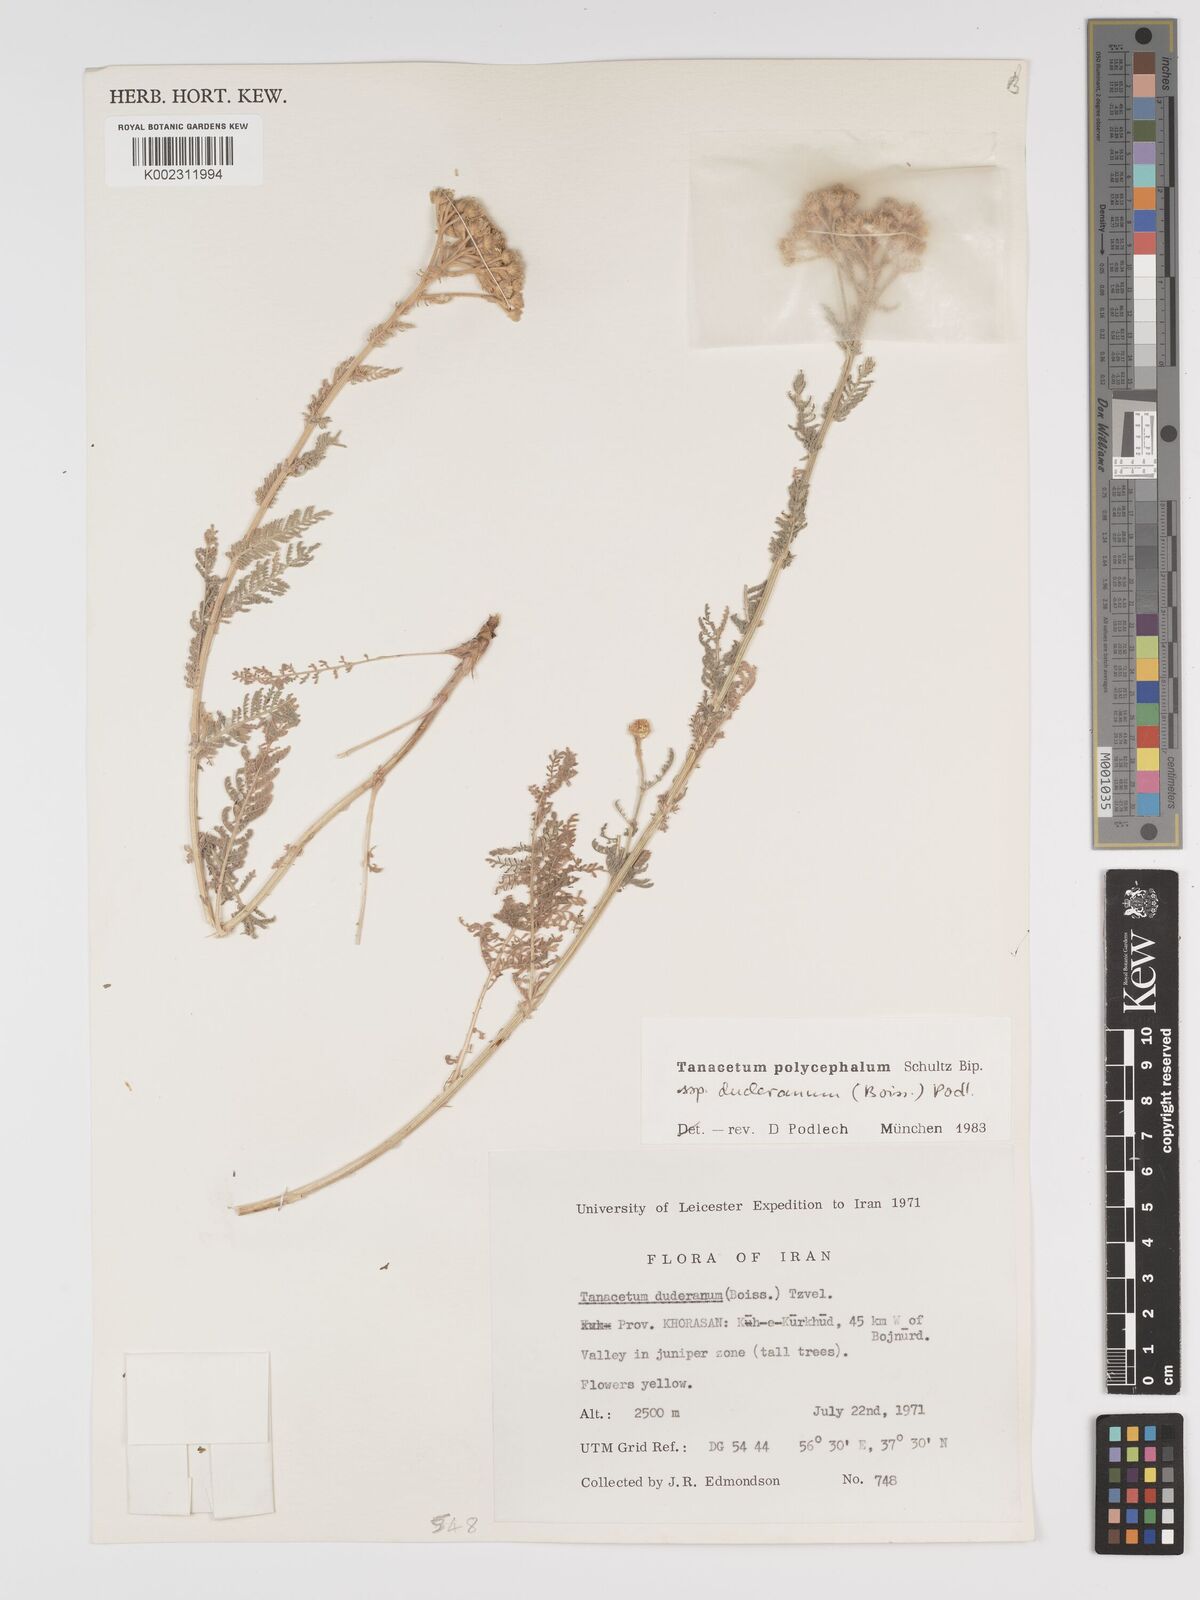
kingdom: Plantae
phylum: Tracheophyta
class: Magnoliopsida
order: Asterales
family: Asteraceae
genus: Tanacetum
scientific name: Tanacetum polycephalum
